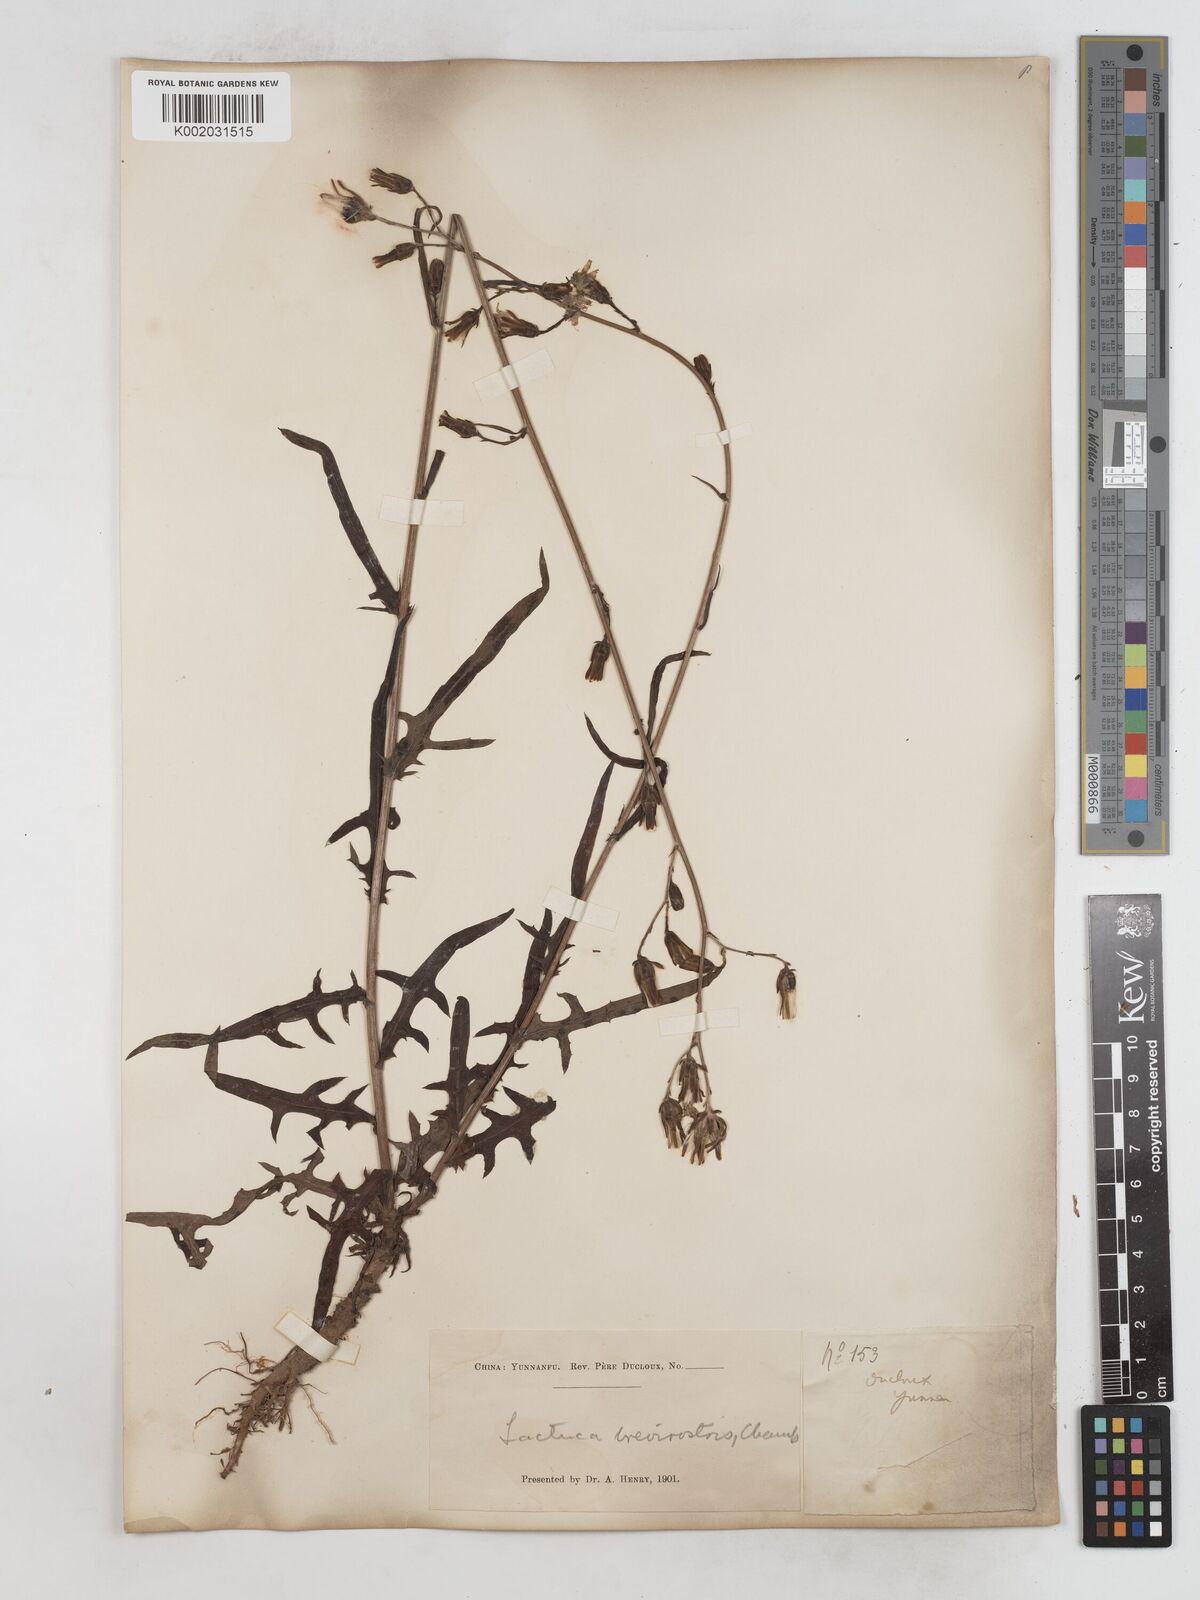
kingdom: Plantae
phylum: Tracheophyta
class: Magnoliopsida
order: Asterales
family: Asteraceae
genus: Lactuca
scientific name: Lactuca indica
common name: Wild lettuce
